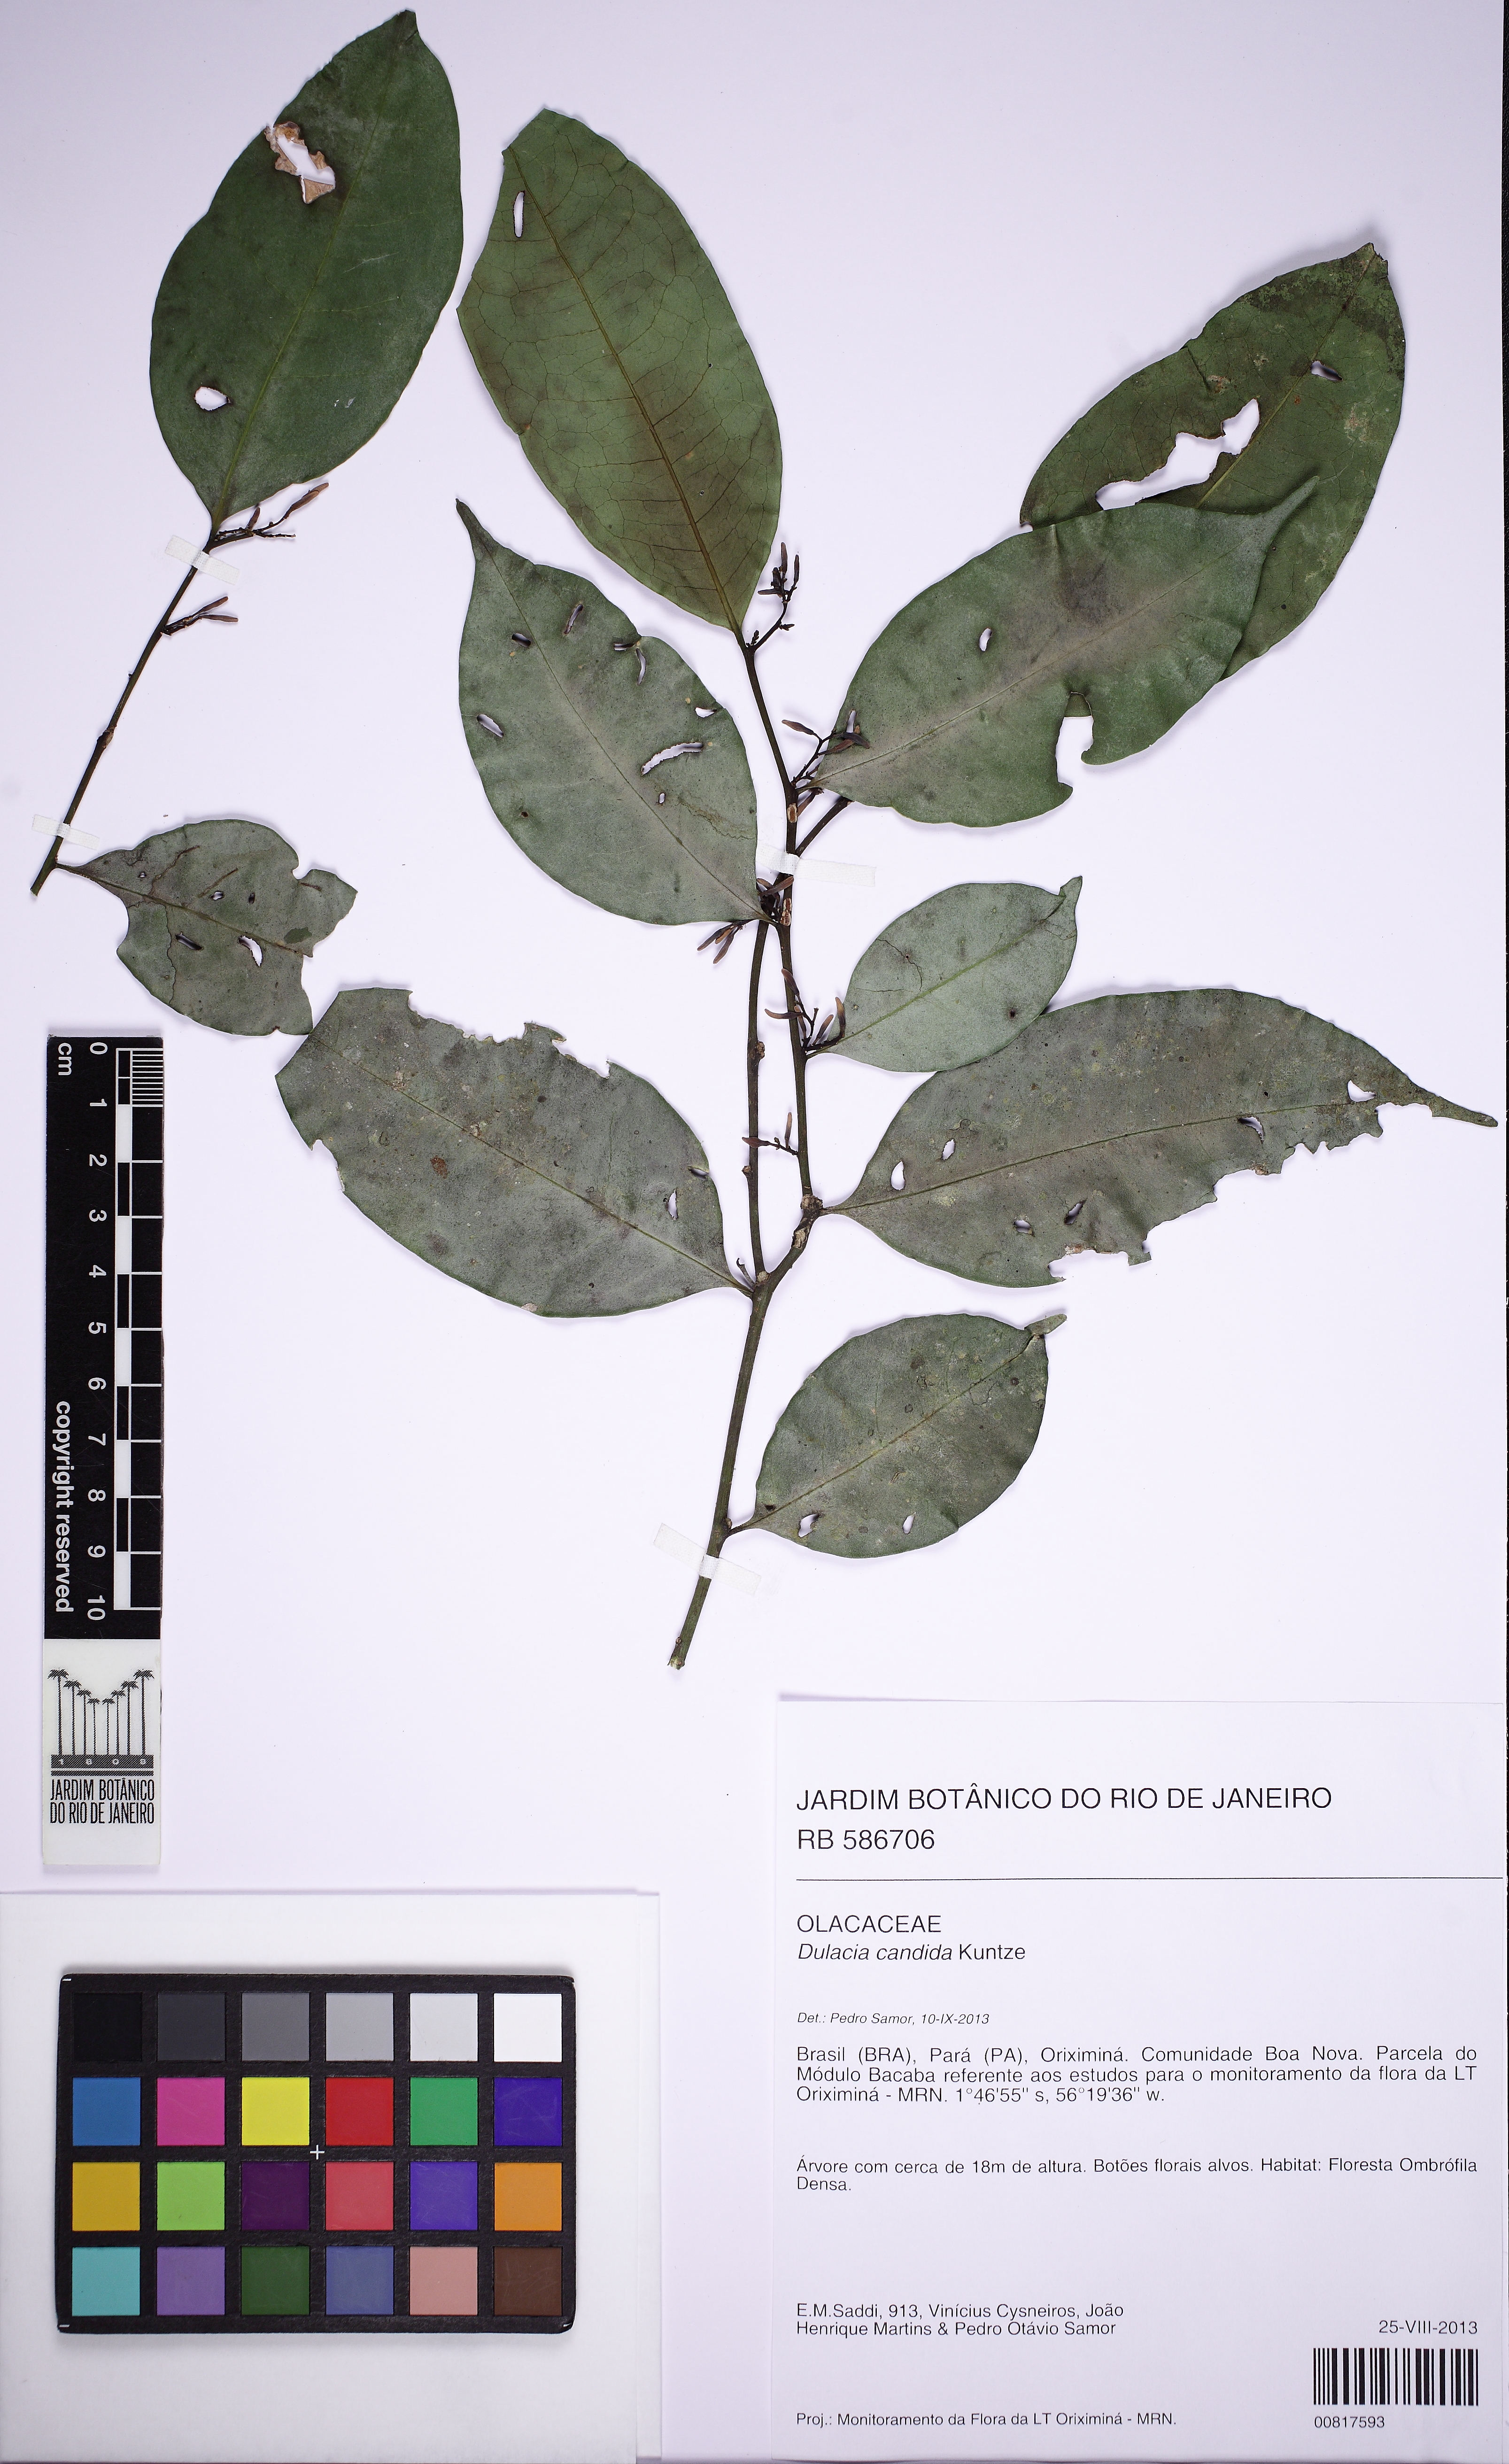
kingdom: Plantae
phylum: Tracheophyta
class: Magnoliopsida
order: Santalales
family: Olacaceae
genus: Dulacia
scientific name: Dulacia candida
